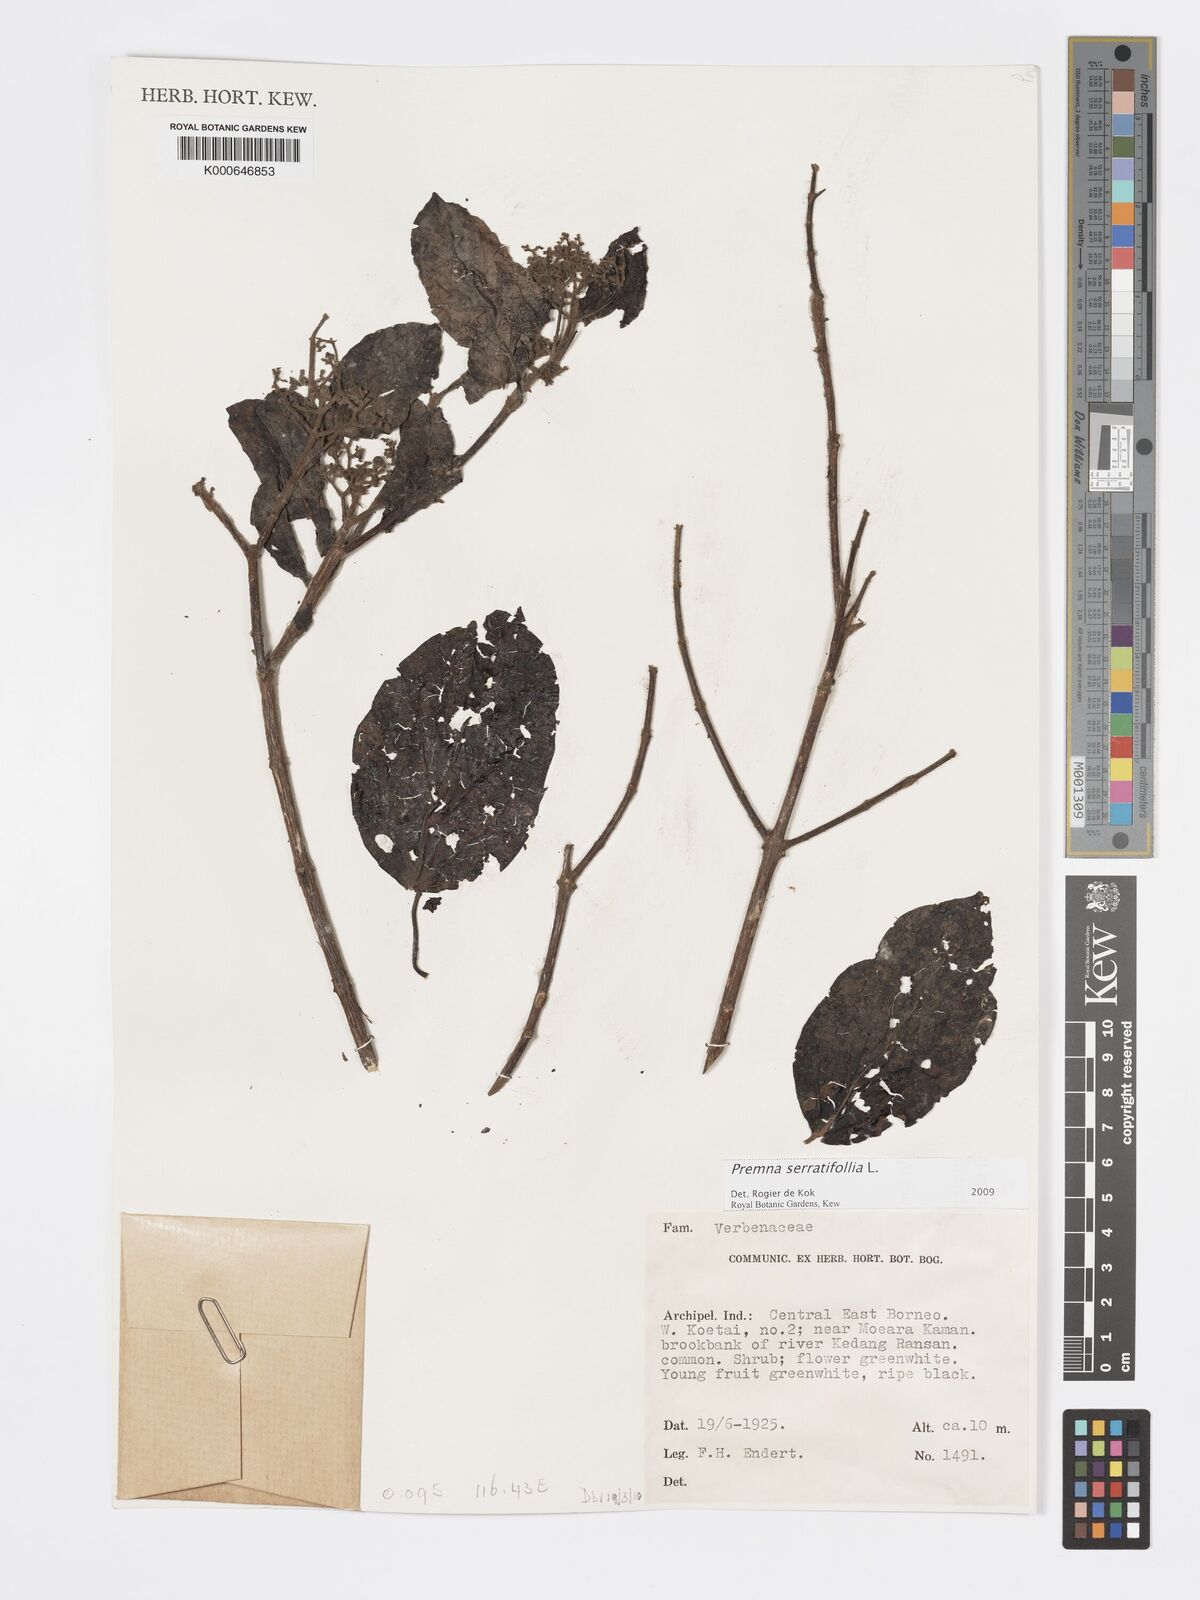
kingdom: Plantae
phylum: Tracheophyta
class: Magnoliopsida
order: Lamiales
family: Lamiaceae
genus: Premna
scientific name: Premna serratifolia
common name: Bastard guelder
